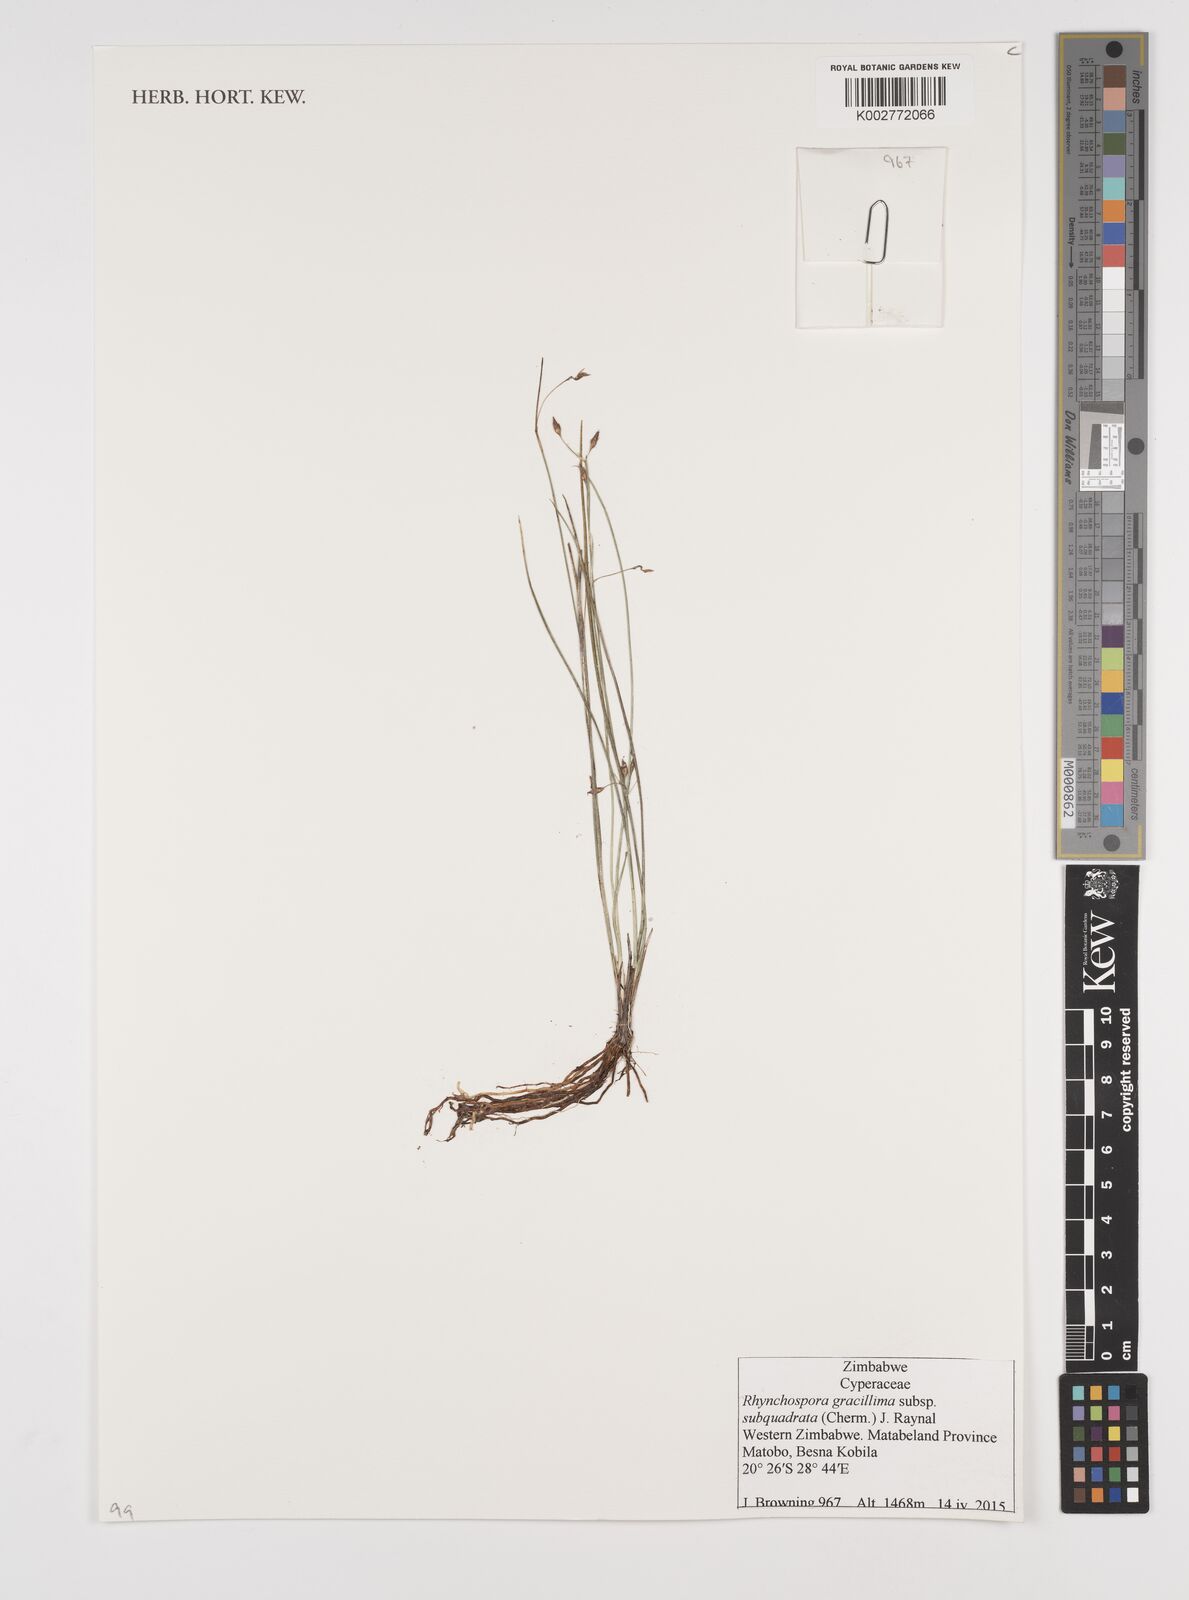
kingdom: Plantae
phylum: Tracheophyta
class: Liliopsida
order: Poales
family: Cyperaceae
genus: Rhynchospora
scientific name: Rhynchospora gracillima
